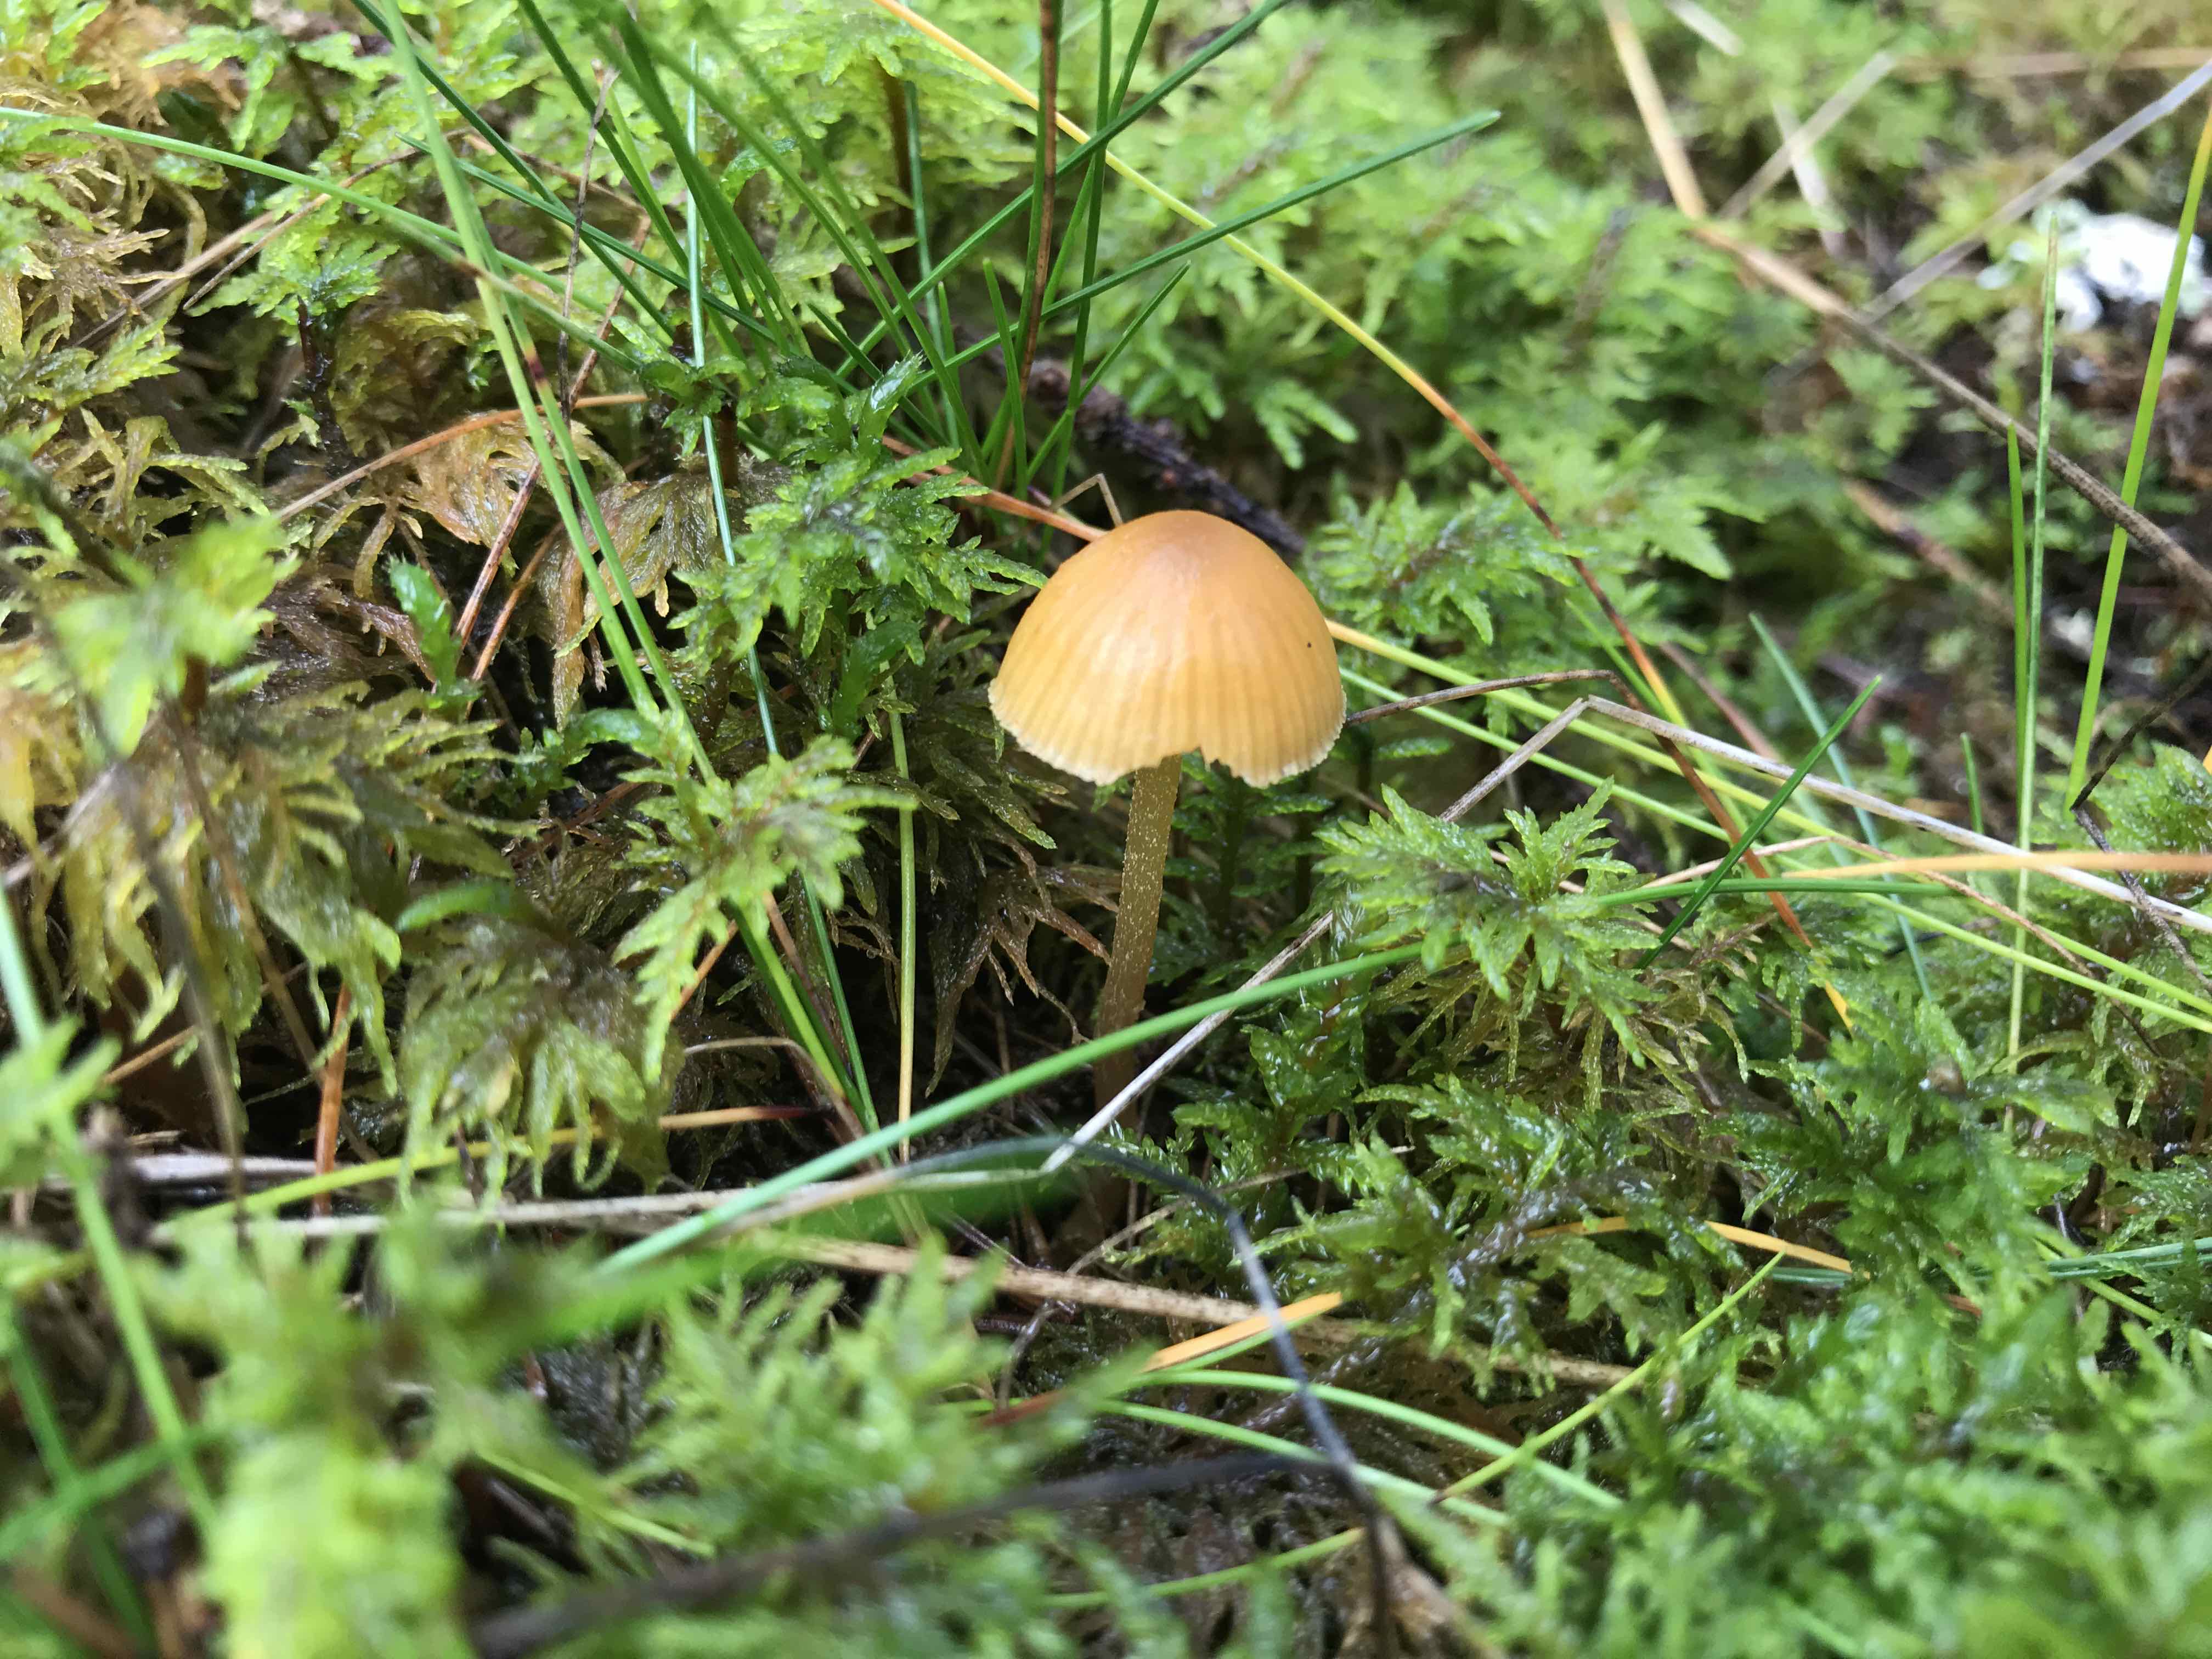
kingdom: Fungi
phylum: Basidiomycota
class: Agaricomycetes
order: Agaricales
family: Hymenogastraceae
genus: Galerina
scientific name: Galerina
